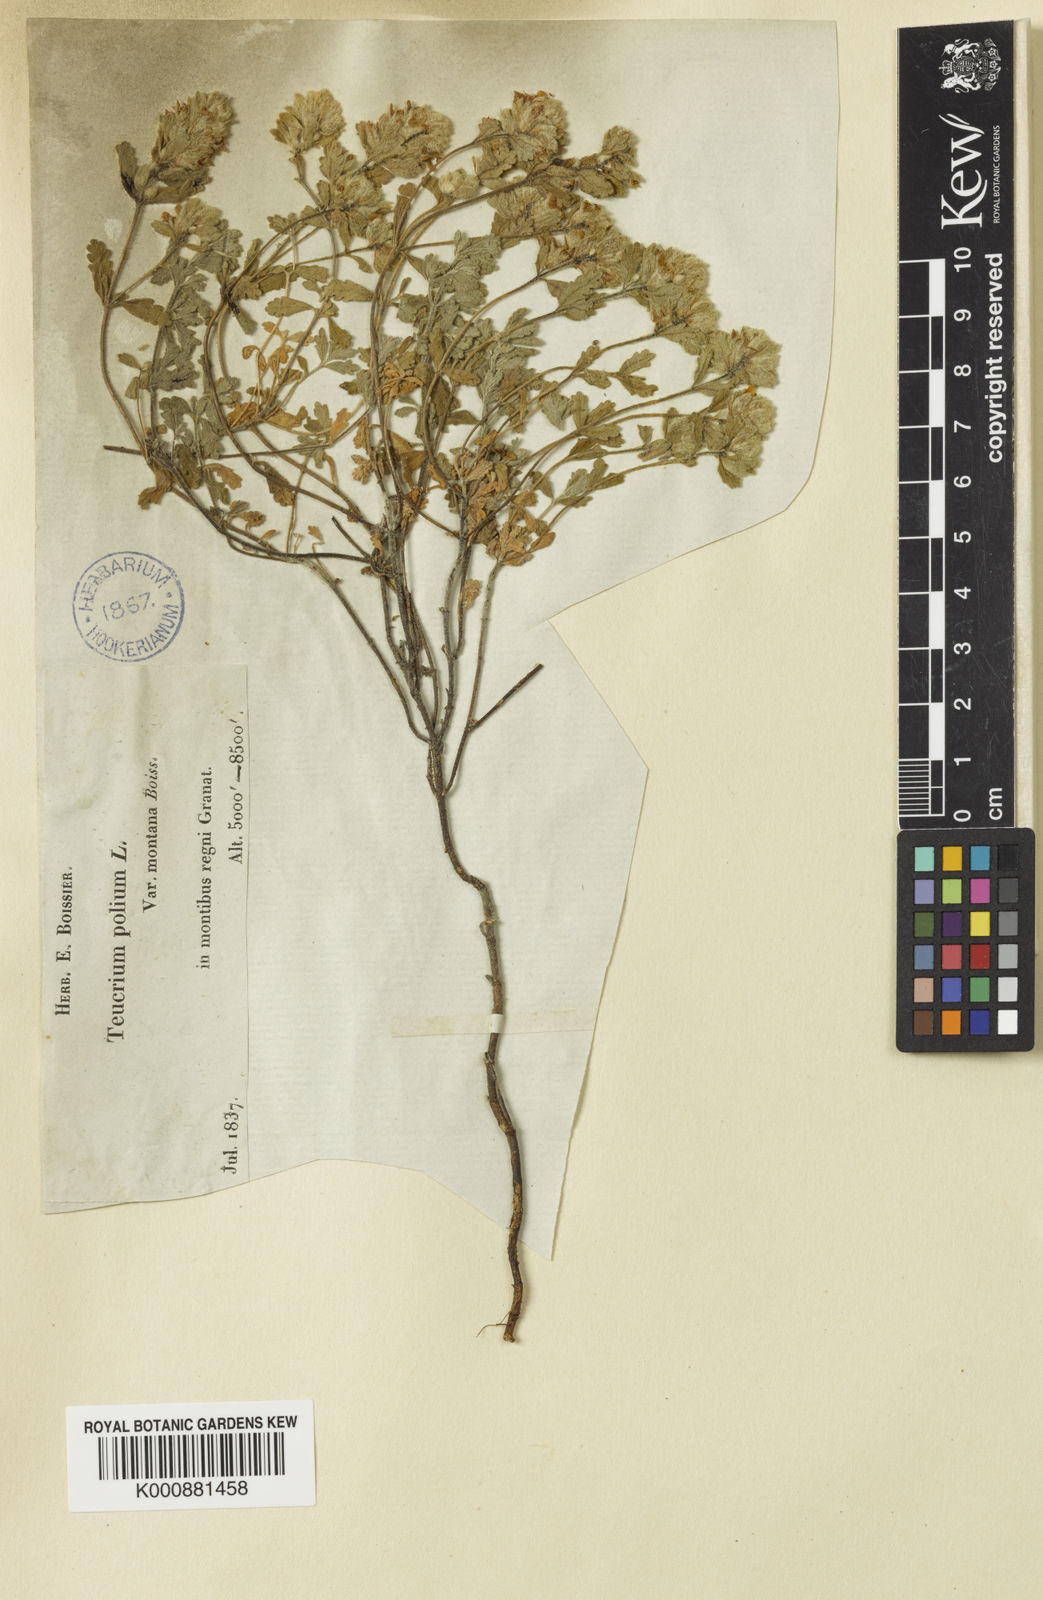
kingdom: Plantae
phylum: Tracheophyta
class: Magnoliopsida
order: Lamiales
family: Lamiaceae
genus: Teucrium
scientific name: Teucrium polium
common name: Poley
